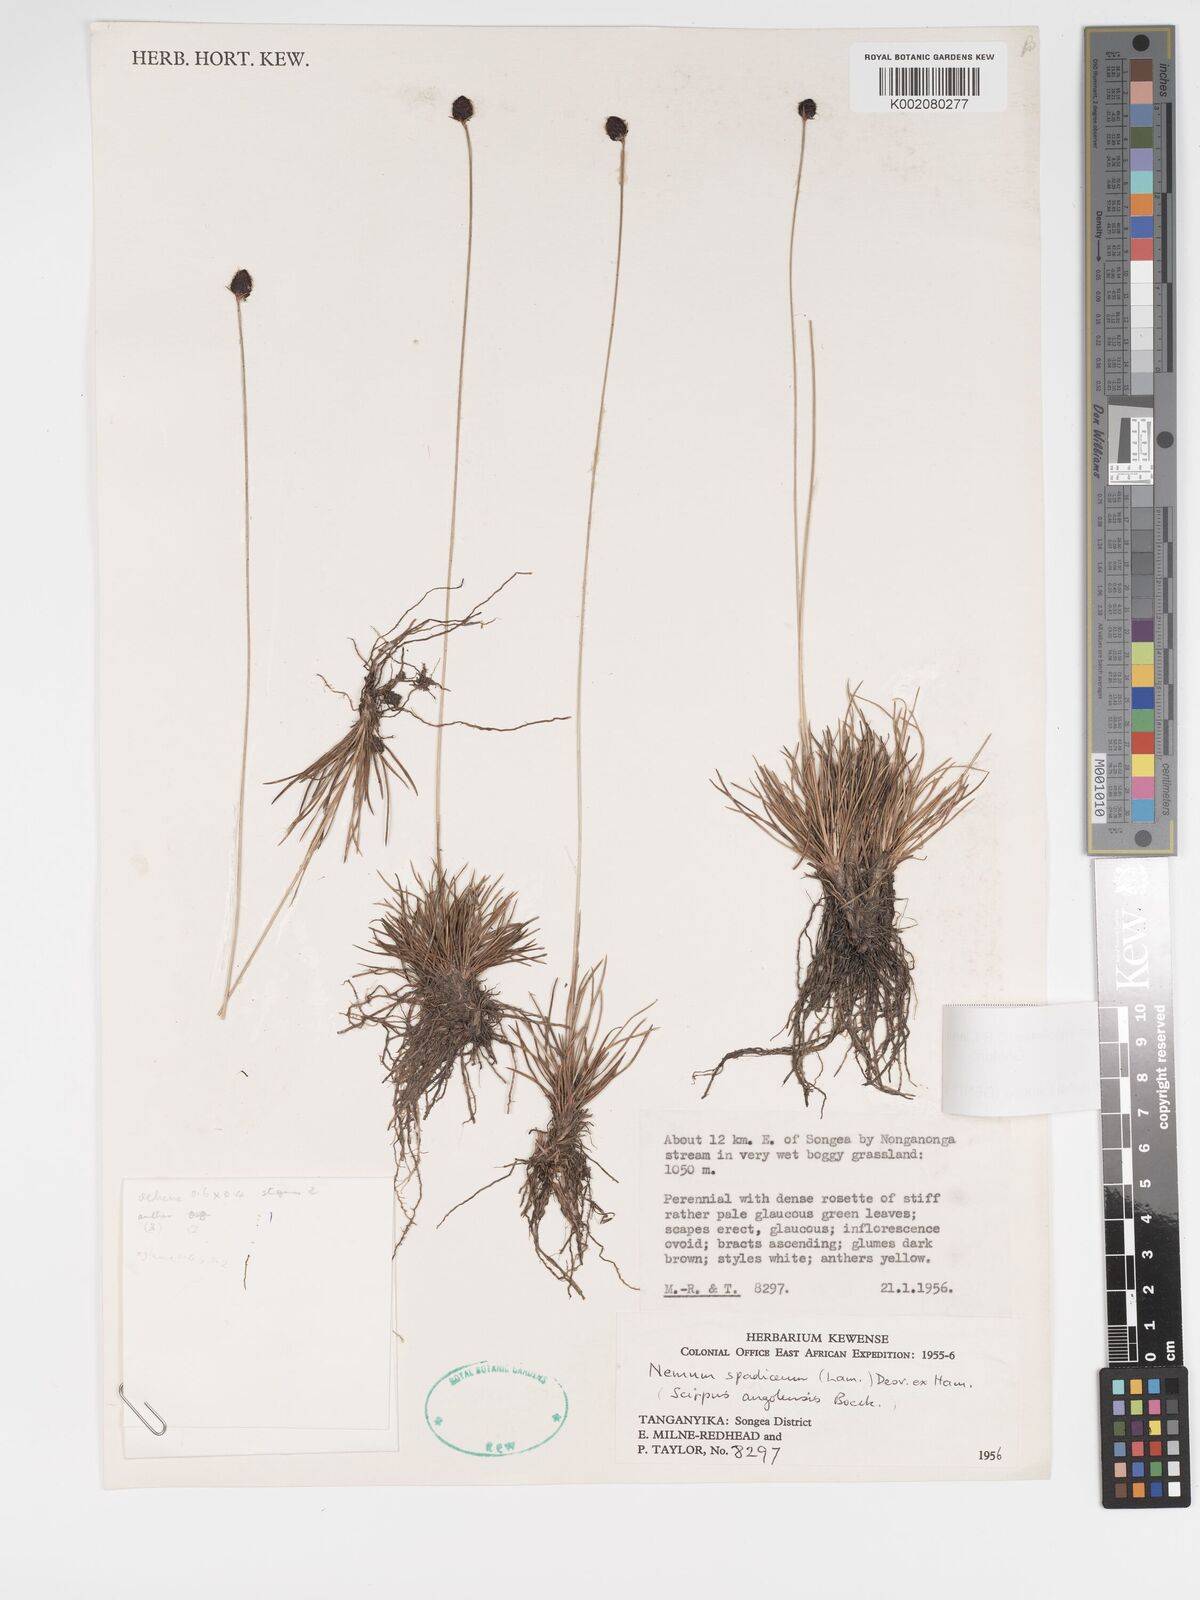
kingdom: Plantae
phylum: Tracheophyta
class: Liliopsida
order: Poales
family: Cyperaceae
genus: Bulbostylis
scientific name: Bulbostylis angolensis
